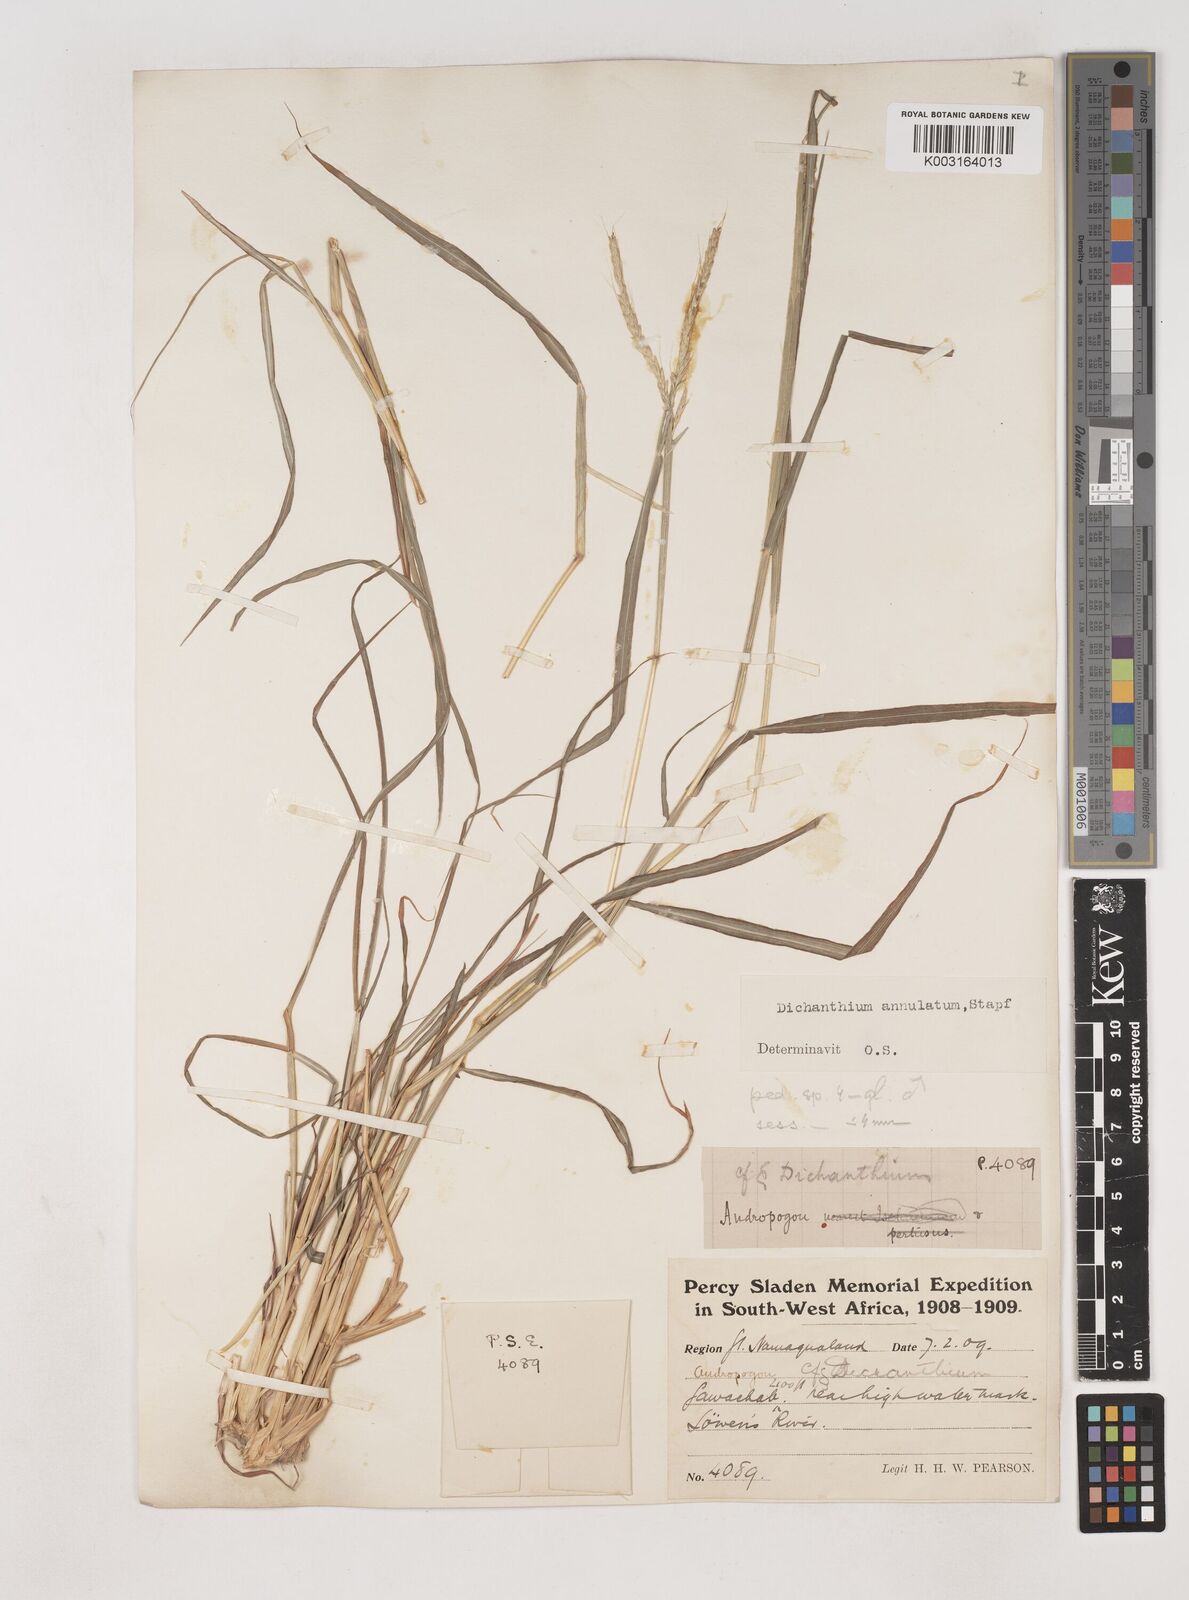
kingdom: Plantae
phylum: Tracheophyta
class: Liliopsida
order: Poales
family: Poaceae
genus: Dichanthium
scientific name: Dichanthium annulatum
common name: Kleberg's bluestem
